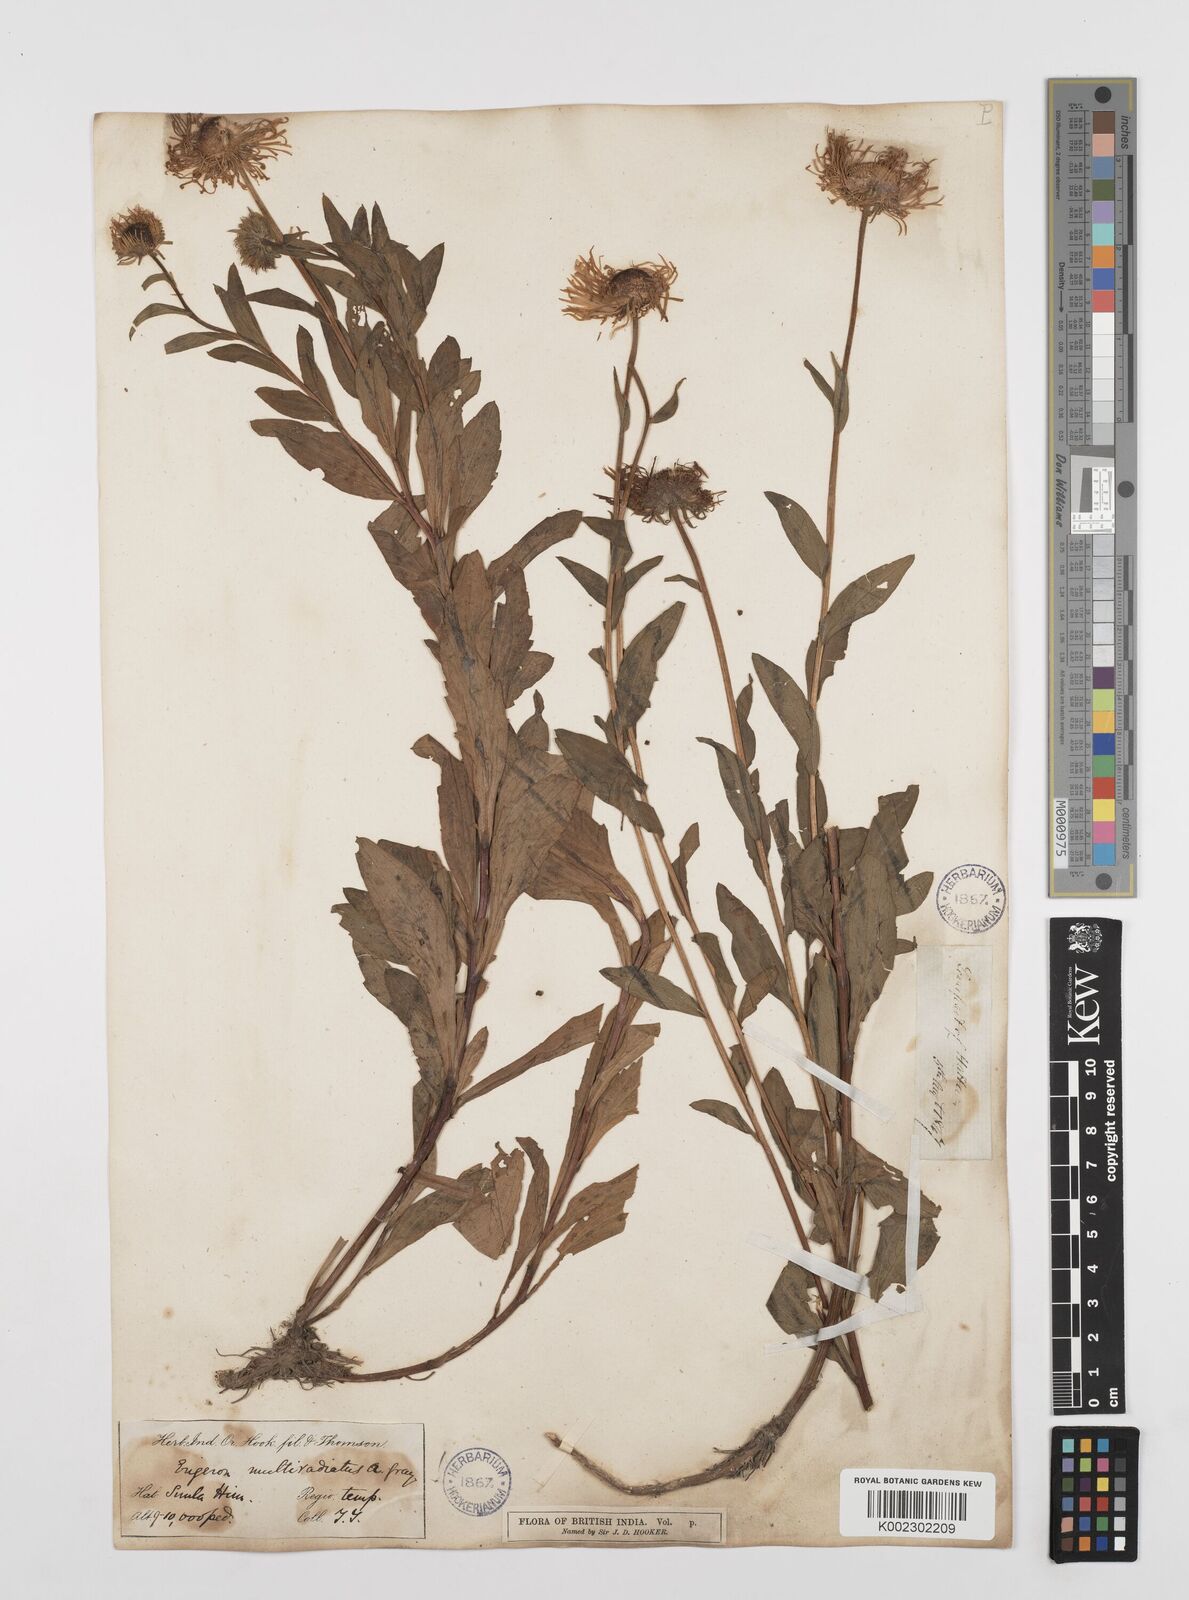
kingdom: Plantae
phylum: Tracheophyta
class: Magnoliopsida
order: Asterales
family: Asteraceae
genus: Erigeron
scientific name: Erigeron multiradiatus
